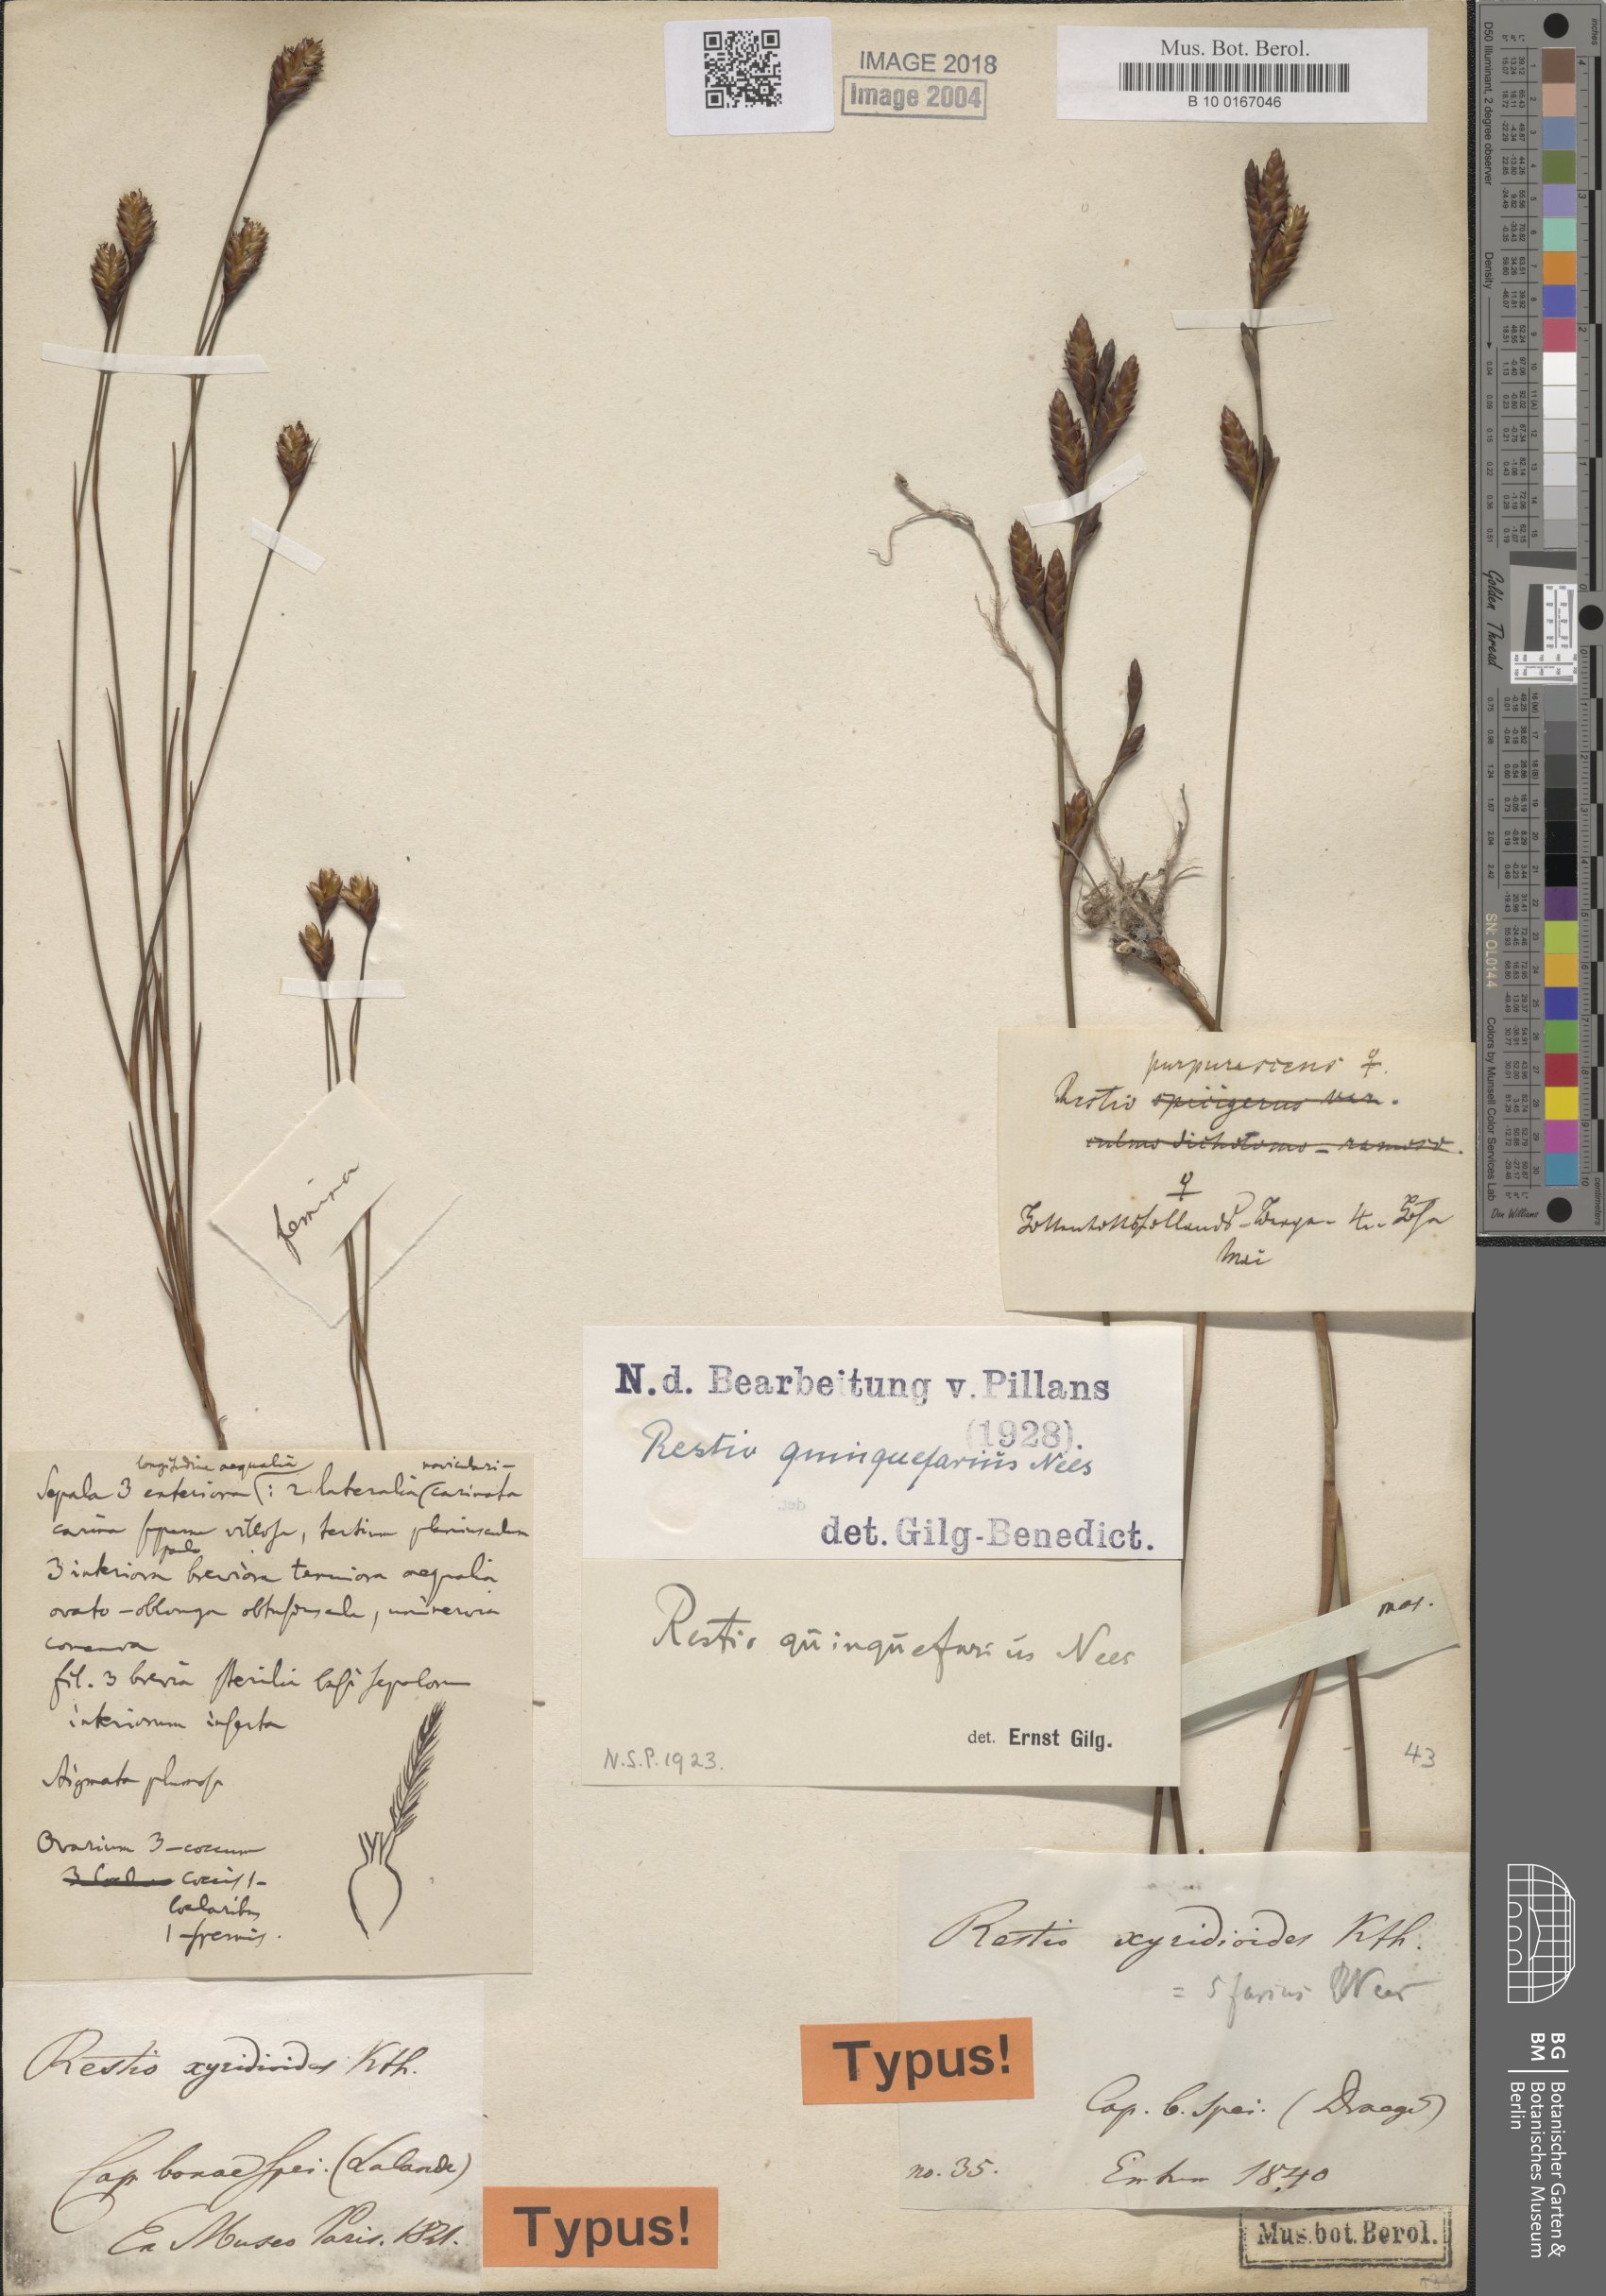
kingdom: Plantae
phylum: Tracheophyta
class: Liliopsida
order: Poales
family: Restionaceae
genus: Restio
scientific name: Restio quinquefarius
